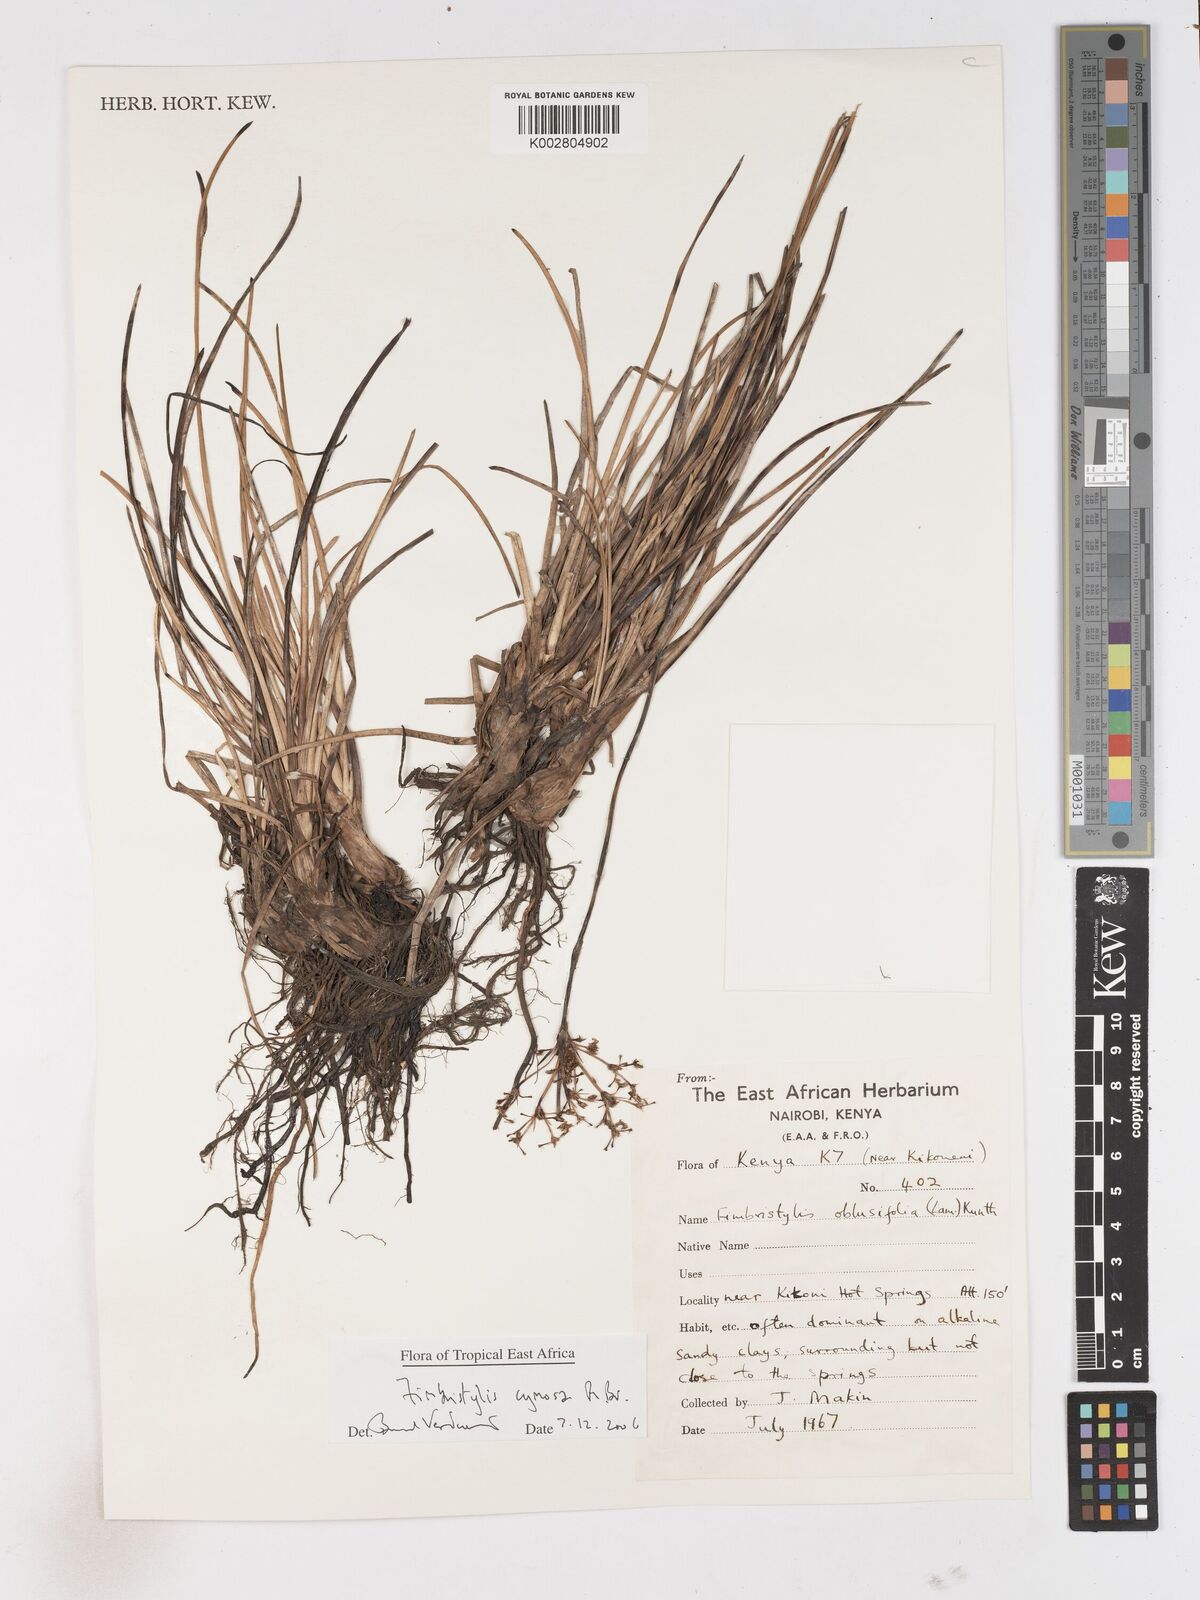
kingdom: Plantae
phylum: Tracheophyta
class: Liliopsida
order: Poales
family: Cyperaceae
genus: Fimbristylis
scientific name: Fimbristylis cymosa
